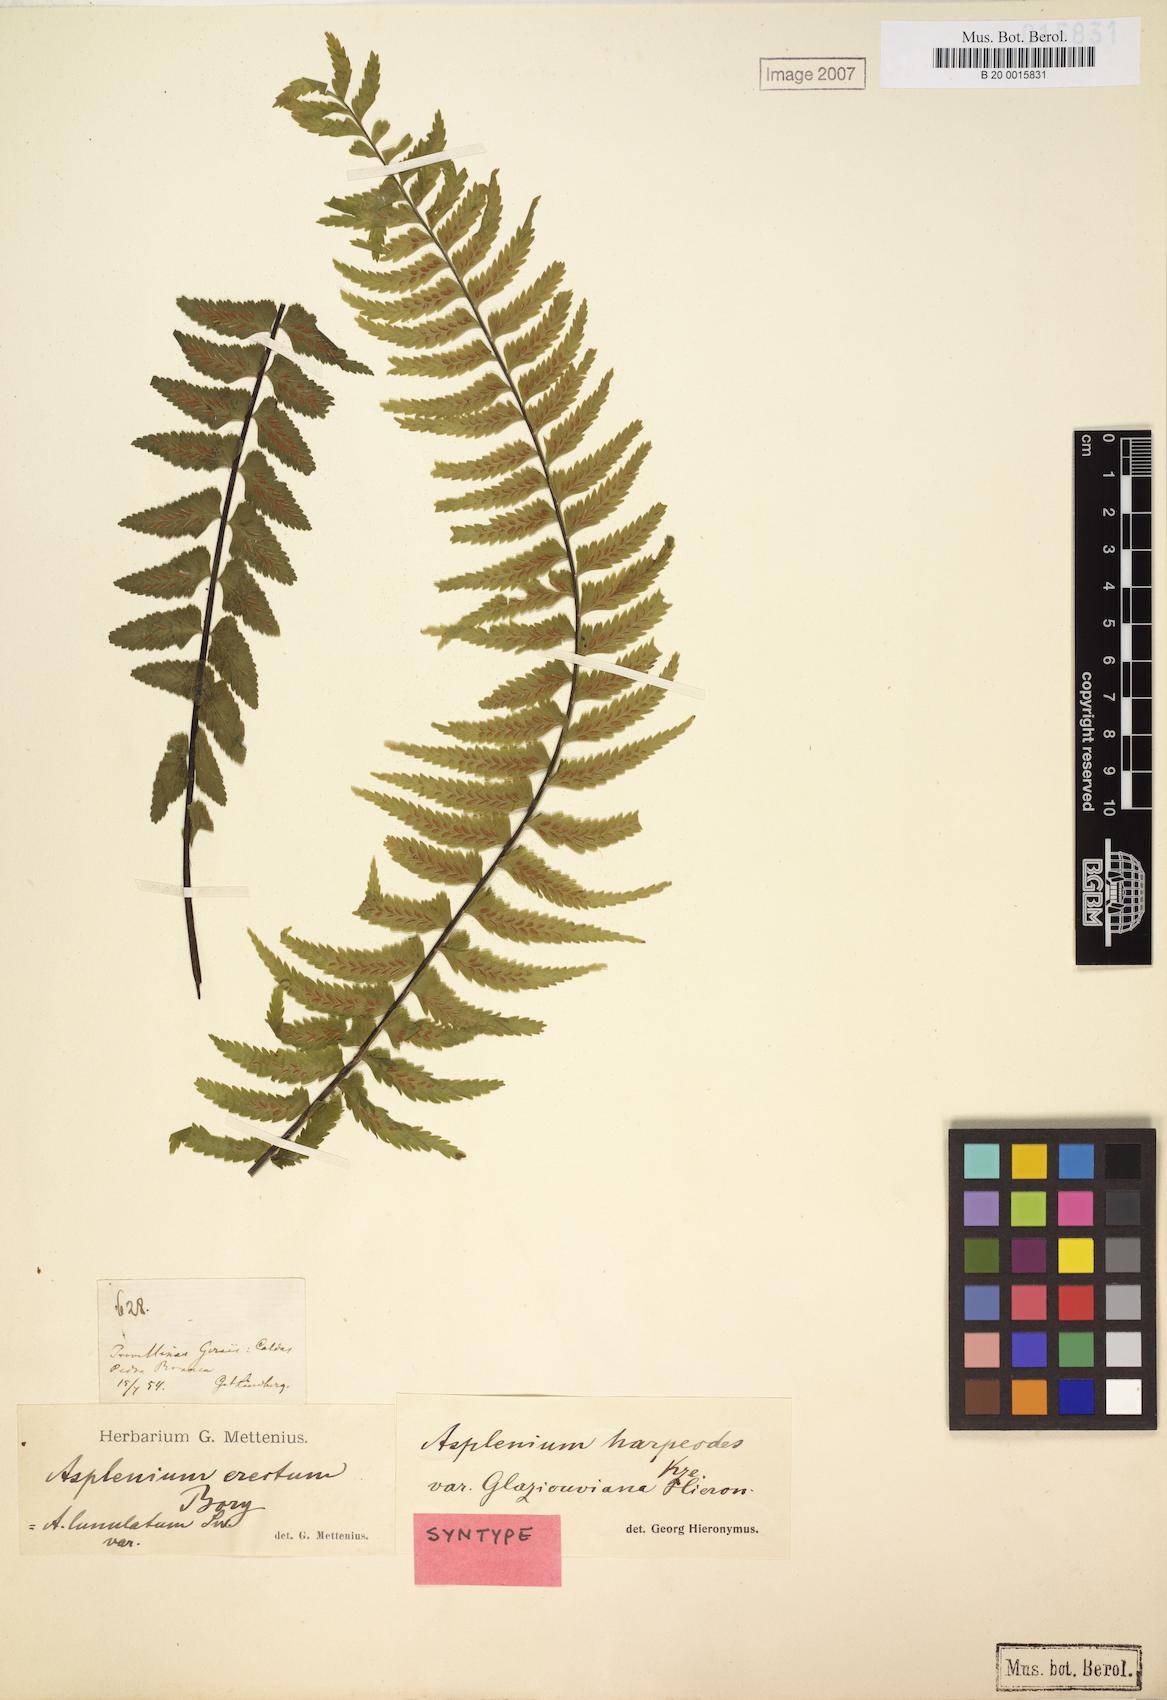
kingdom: Plantae
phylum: Tracheophyta
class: Polypodiopsida
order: Polypodiales
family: Aspleniaceae
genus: Asplenium
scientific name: Asplenium harpeodes
